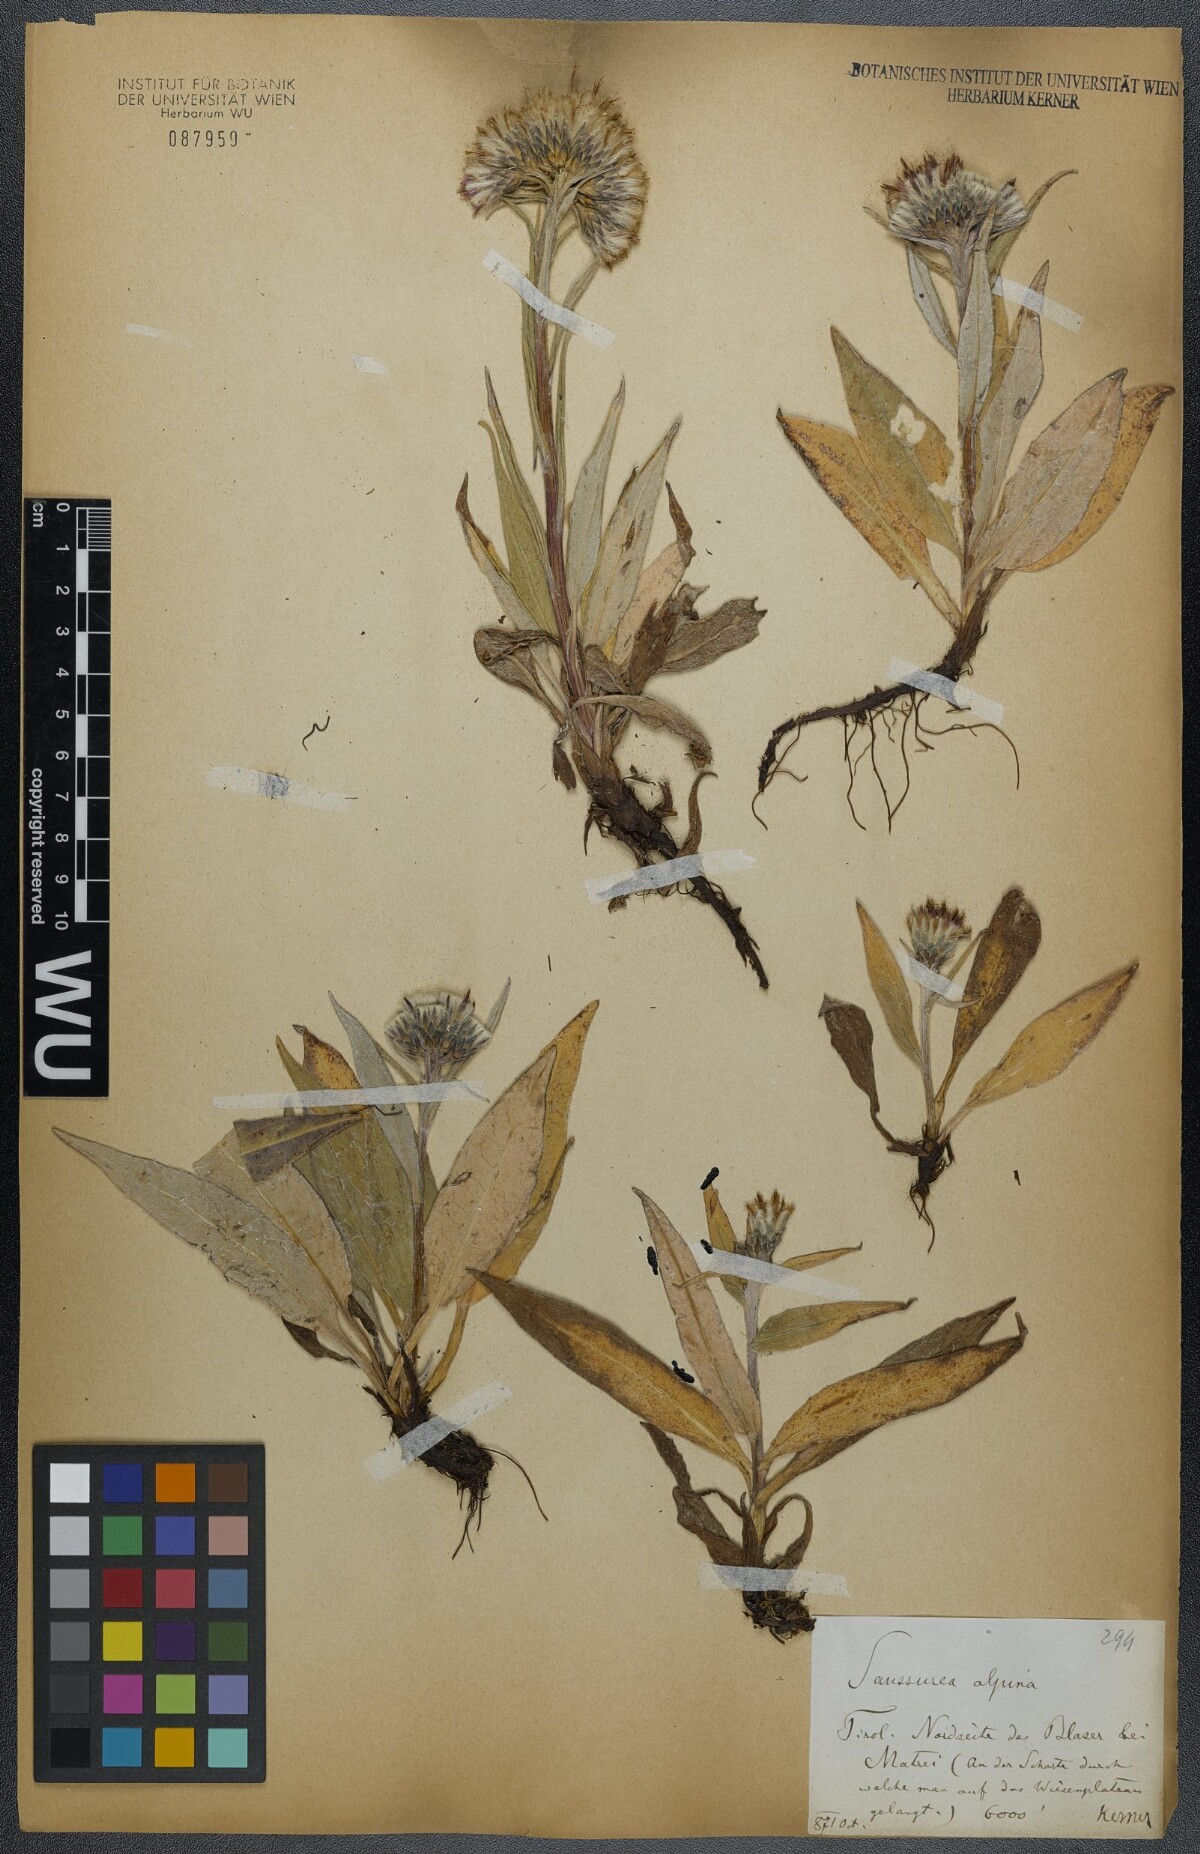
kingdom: Plantae
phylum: Tracheophyta
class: Magnoliopsida
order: Asterales
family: Asteraceae
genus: Saussurea
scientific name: Saussurea alpina
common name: Alpine saw-wort
